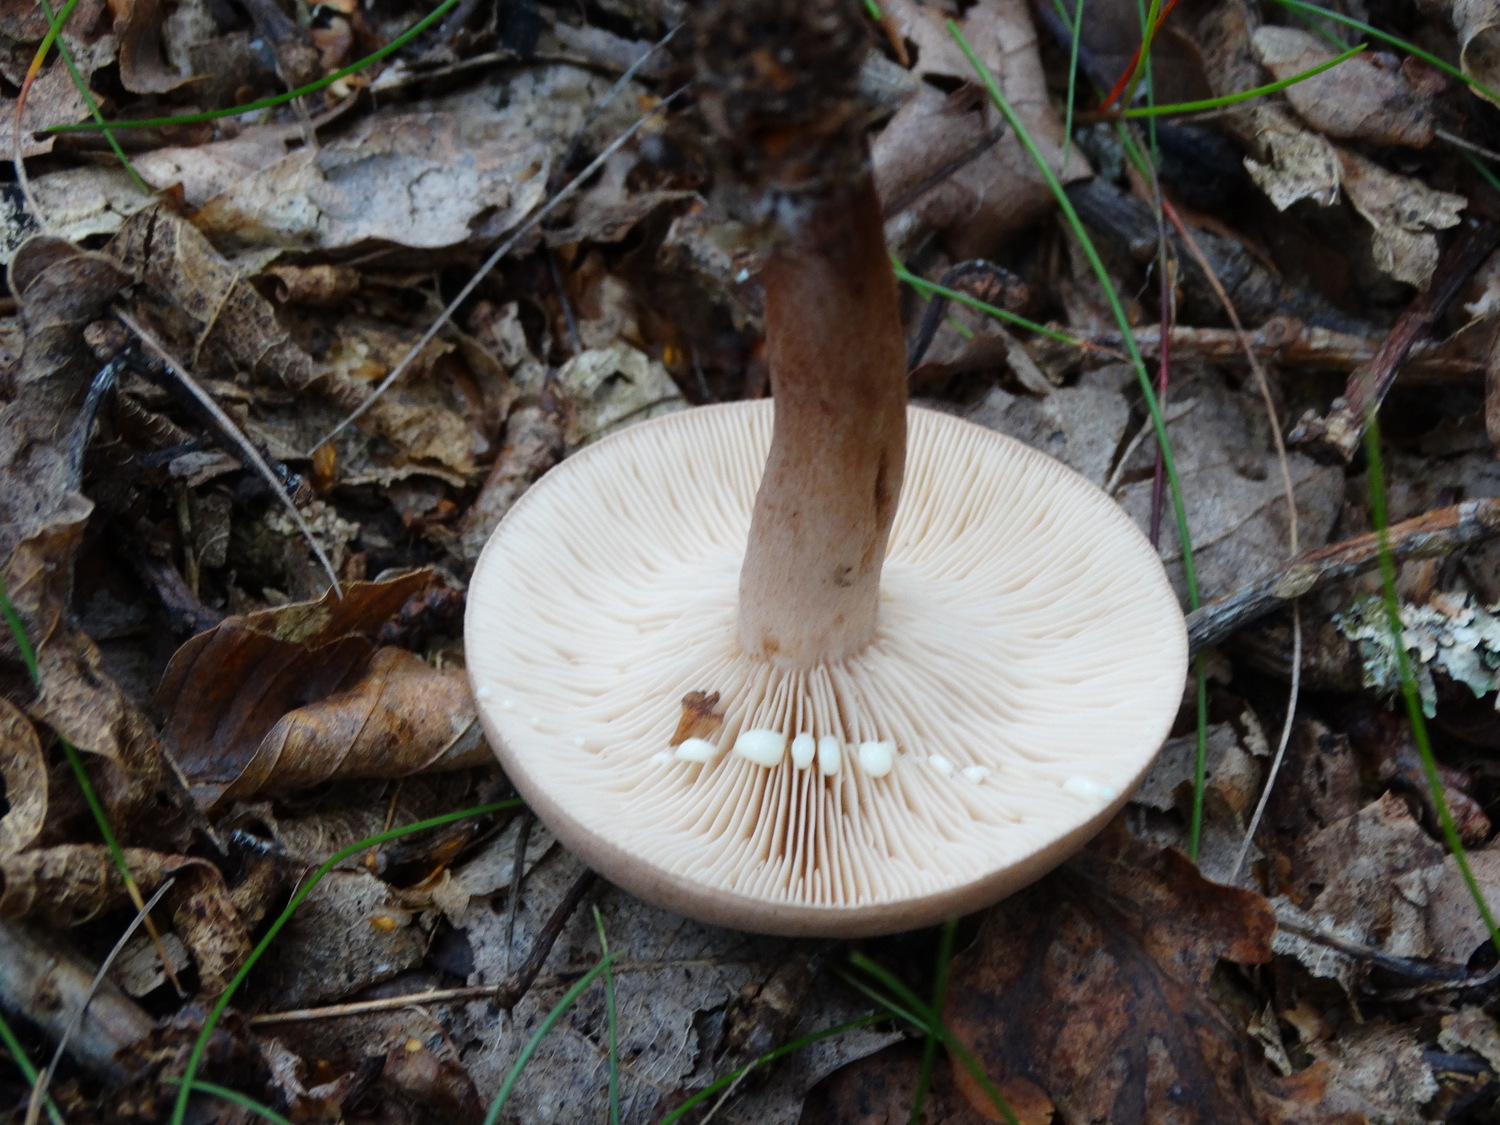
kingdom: Fungi
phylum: Basidiomycota
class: Agaricomycetes
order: Russulales
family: Russulaceae
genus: Lactarius
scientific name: Lactarius quietus
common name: ege-mælkehat
